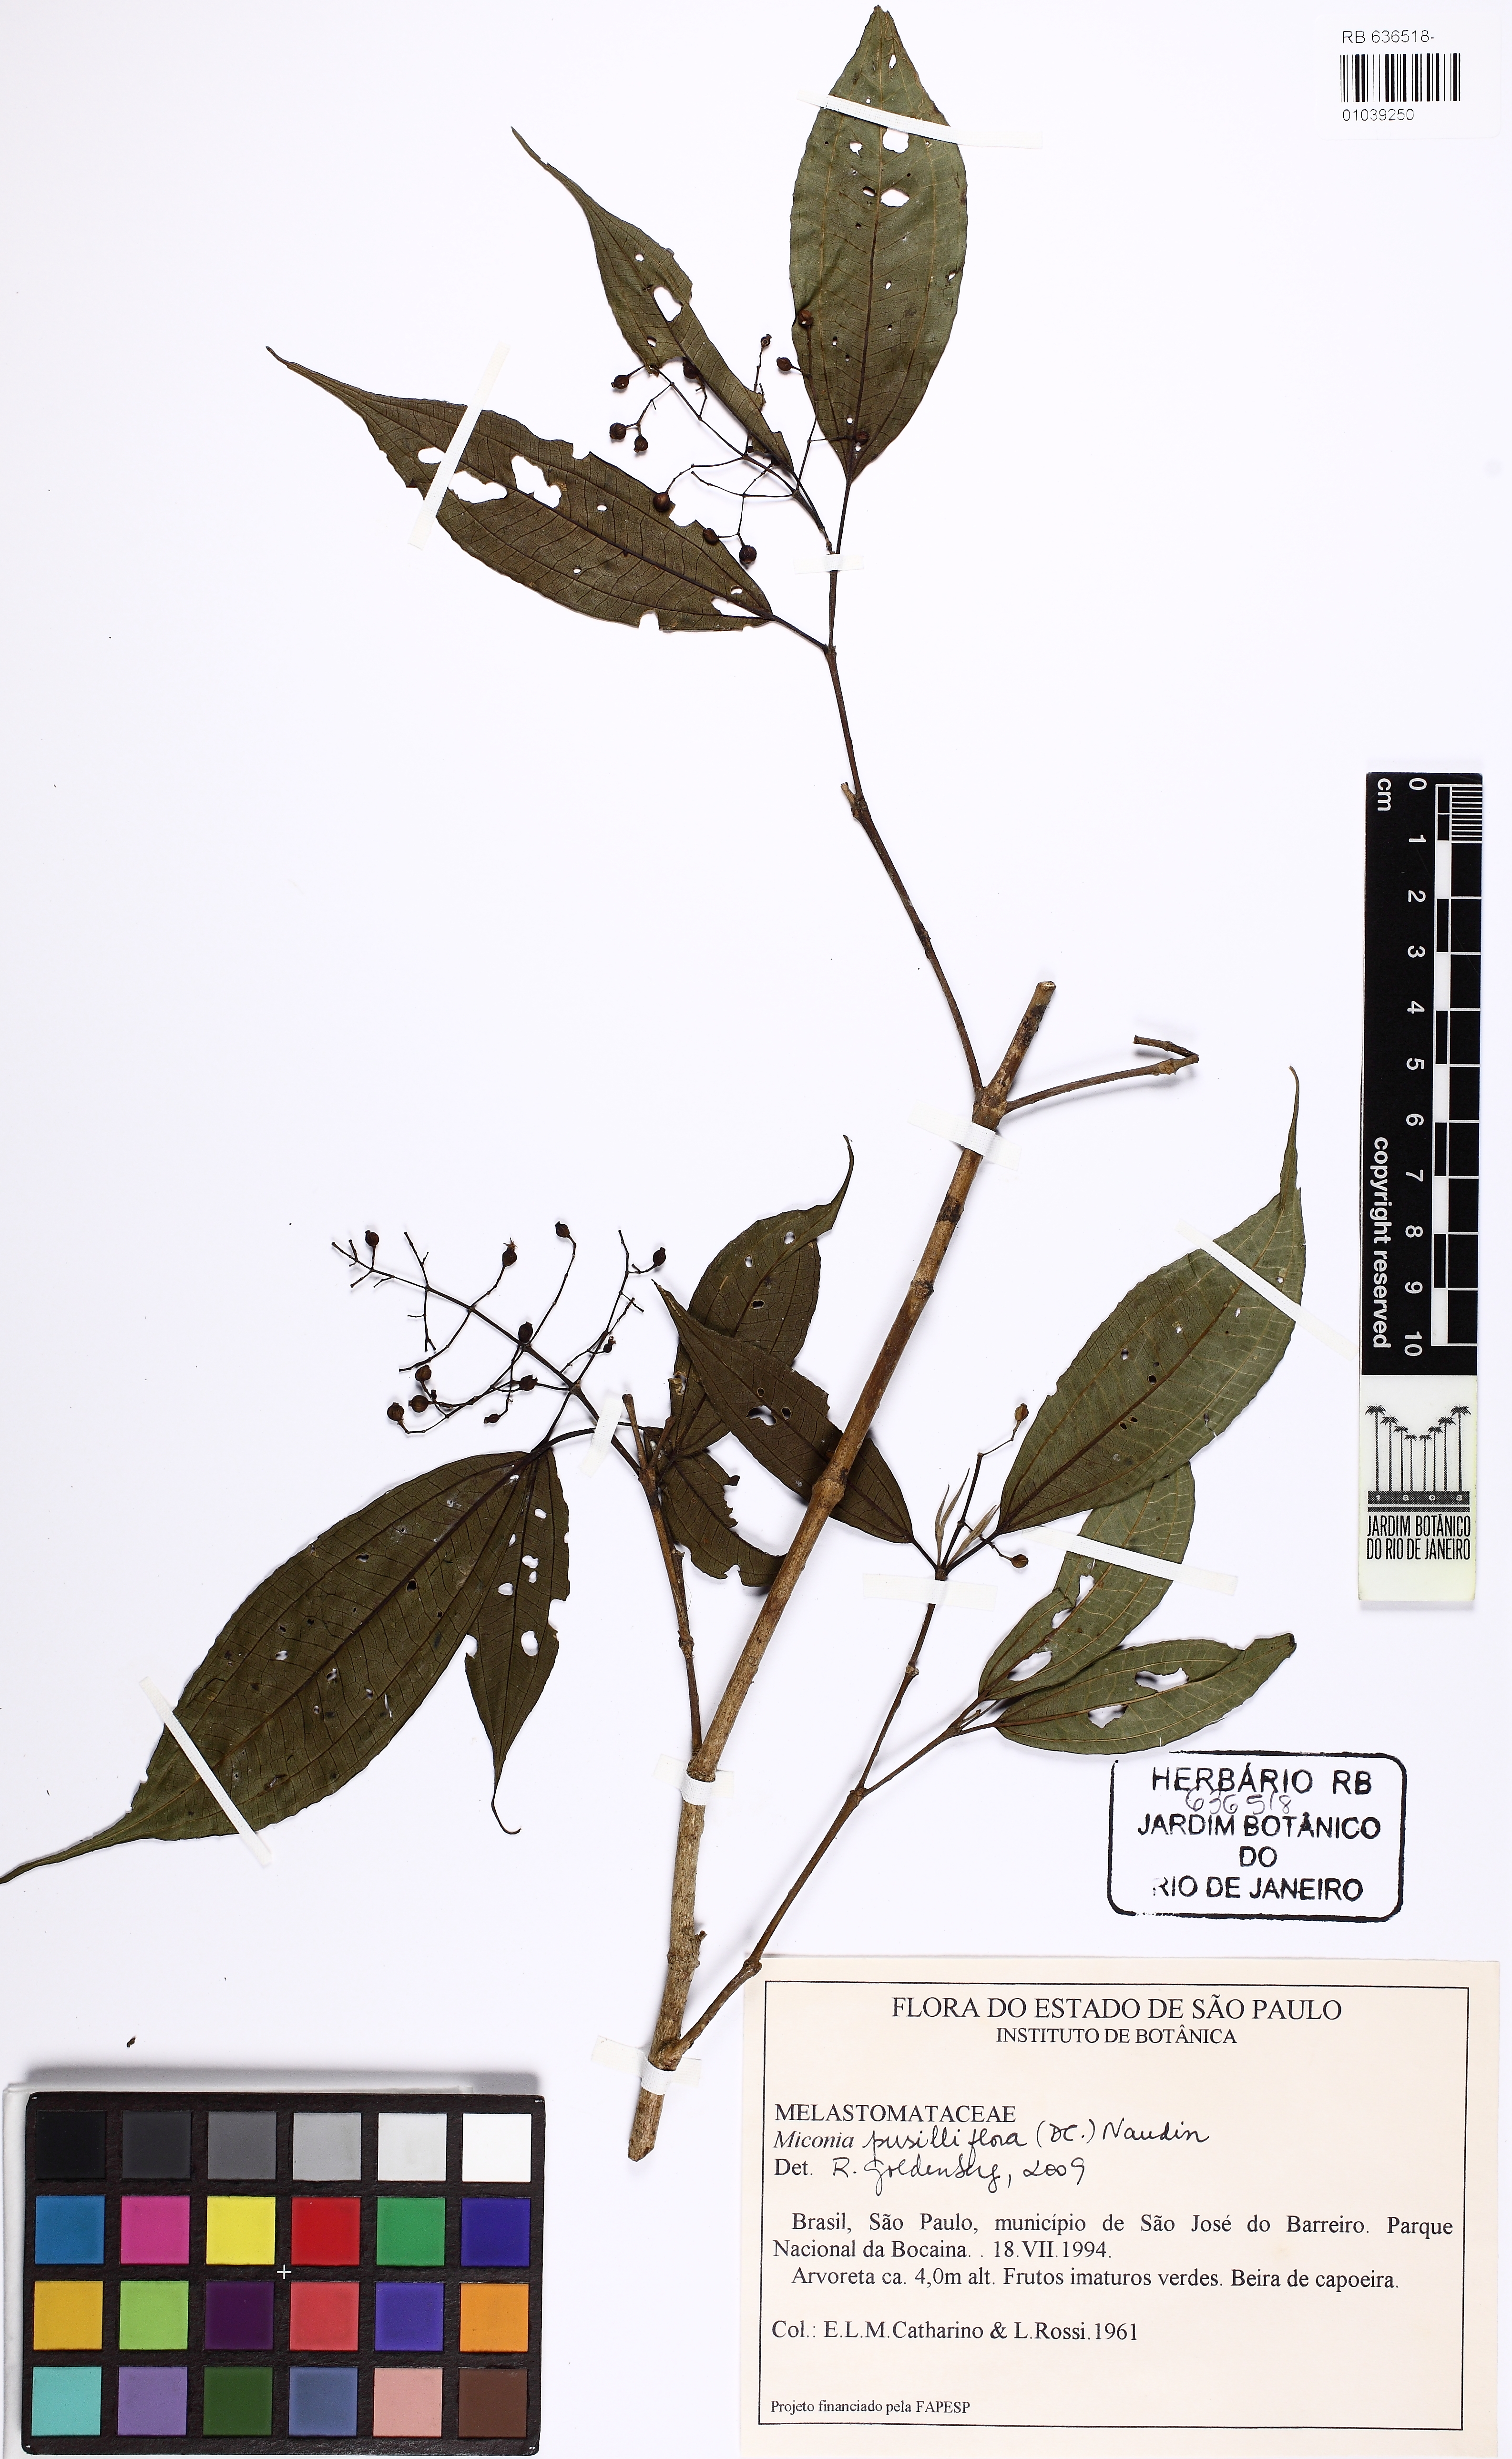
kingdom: Plantae
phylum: Tracheophyta
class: Magnoliopsida
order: Myrtales
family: Melastomataceae
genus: Miconia
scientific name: Miconia pusilliflora
